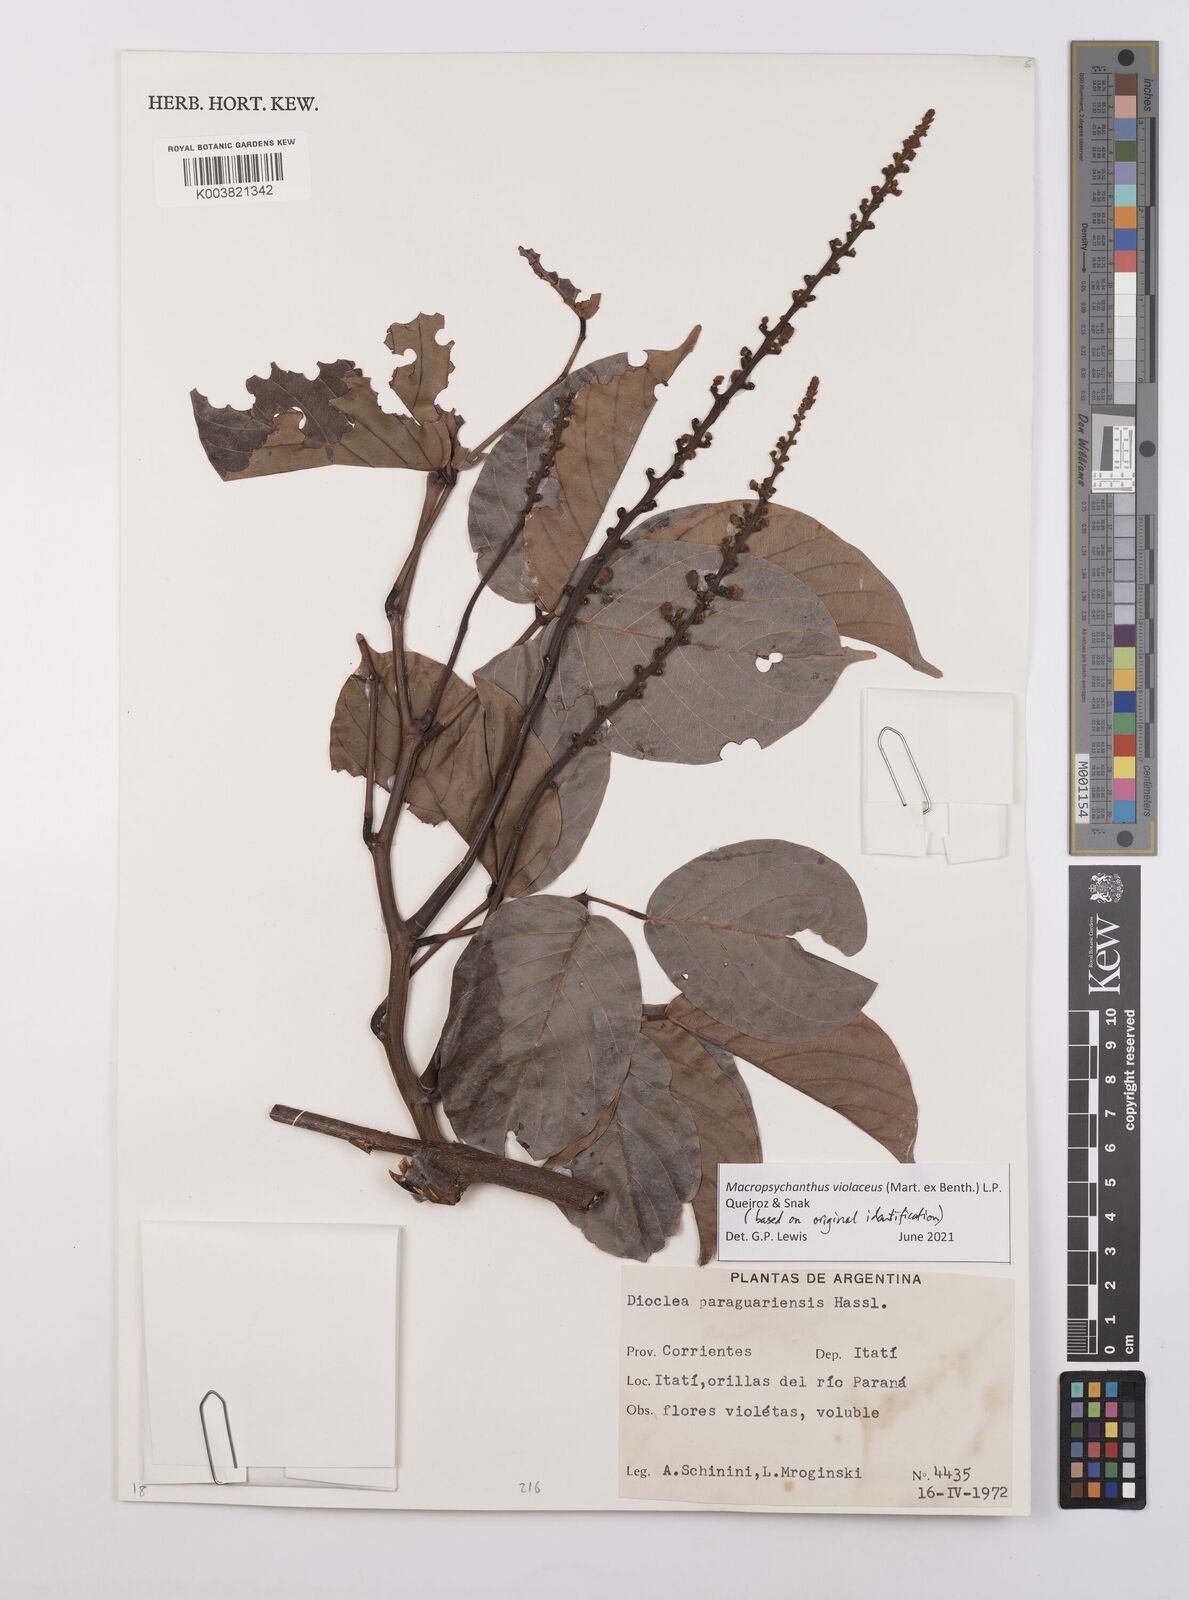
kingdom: Plantae
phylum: Tracheophyta
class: Magnoliopsida
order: Fabales
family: Fabaceae
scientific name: Fabaceae
